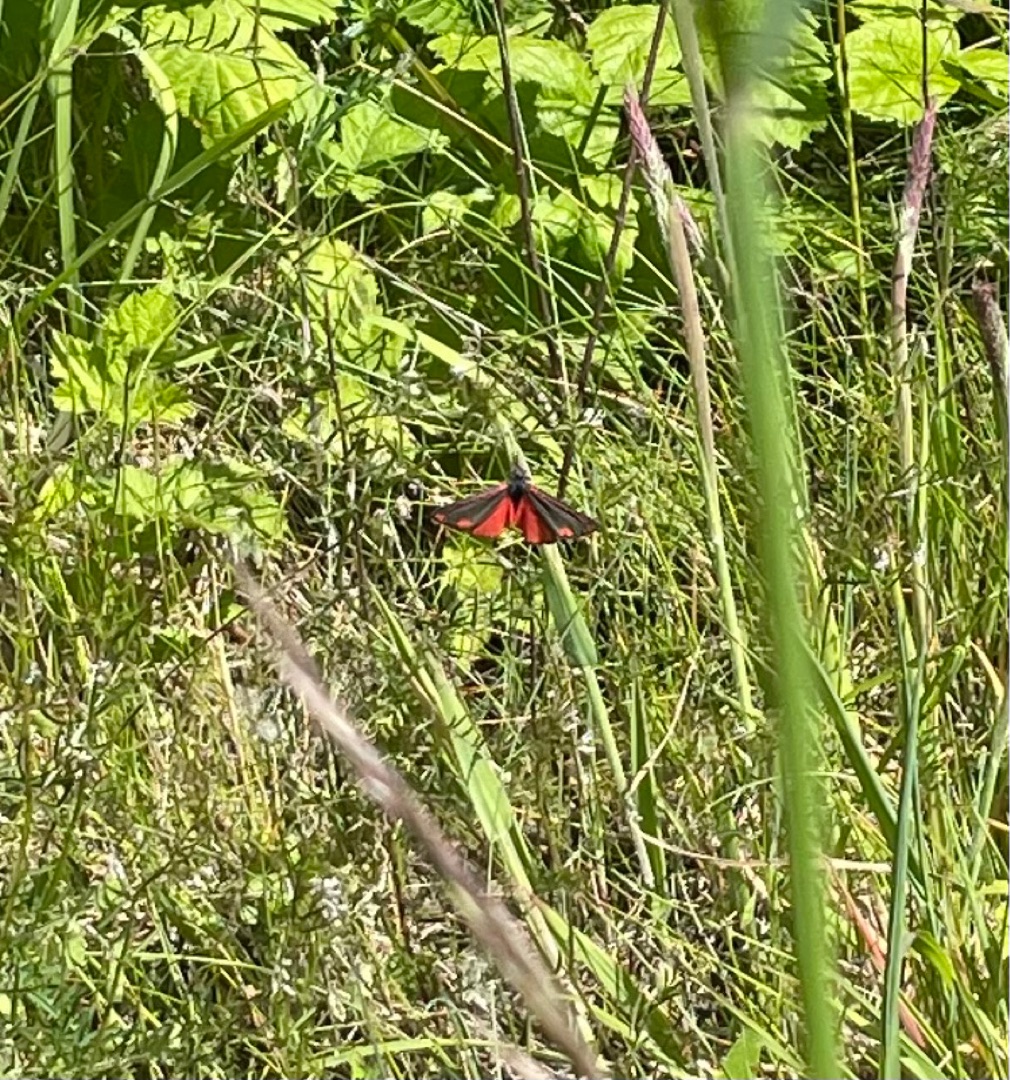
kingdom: Animalia
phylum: Arthropoda
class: Insecta
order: Lepidoptera
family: Erebidae
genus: Tyria
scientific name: Tyria jacobaeae
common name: Blodplet
